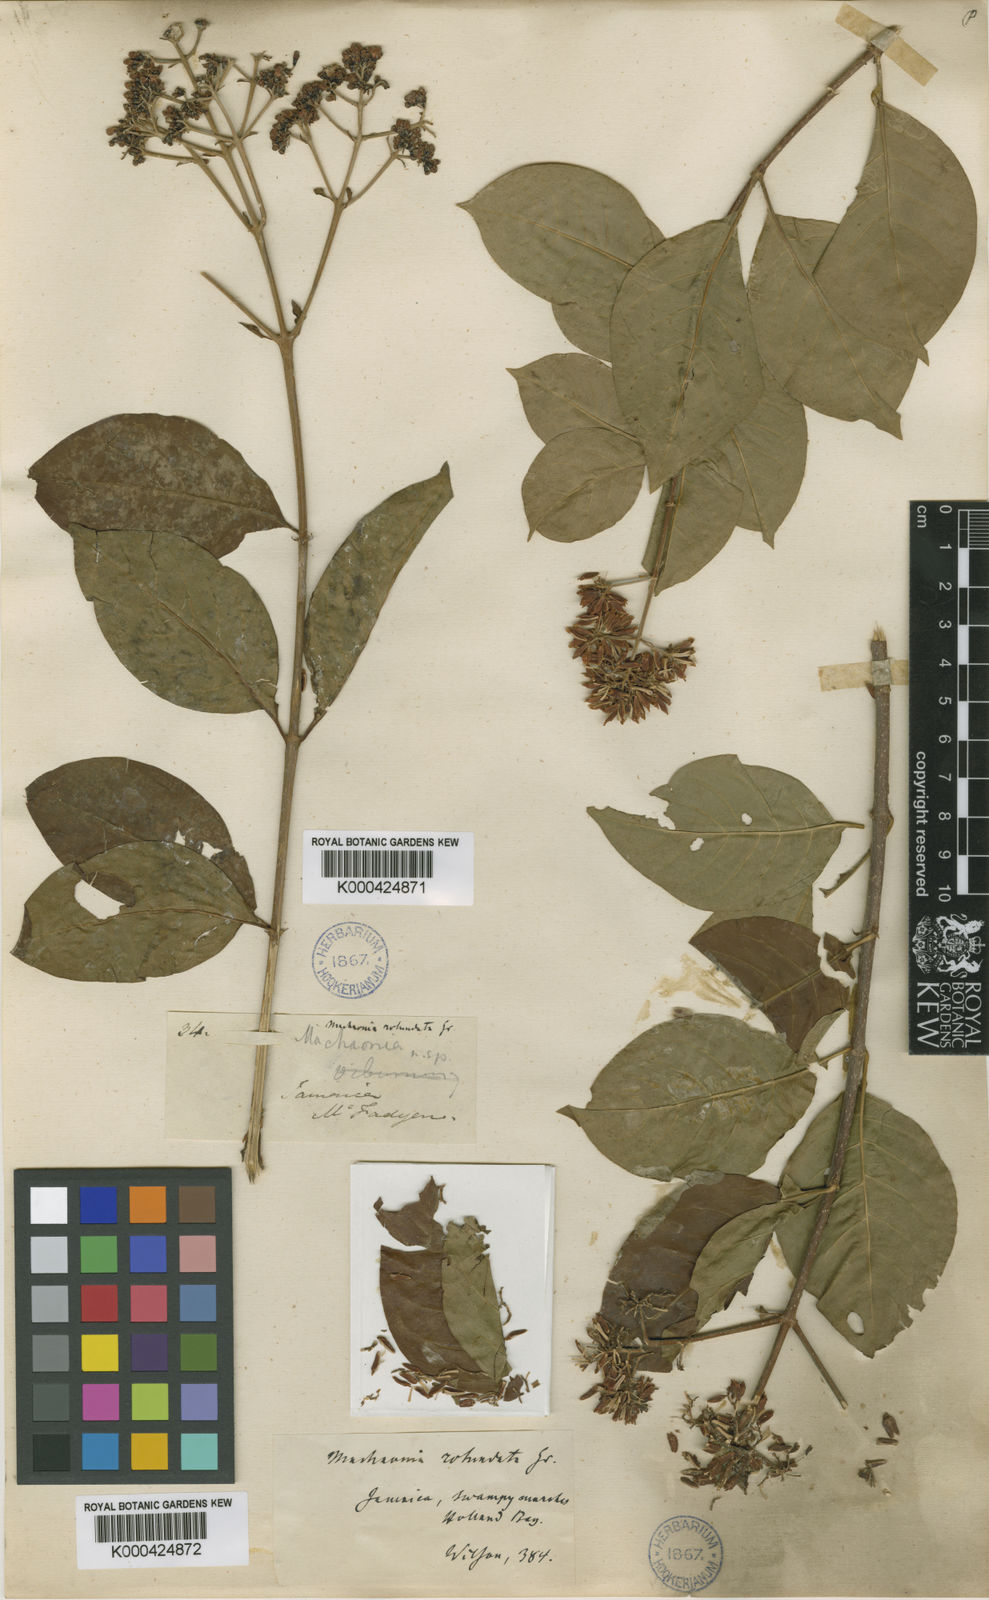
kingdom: Plantae
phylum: Tracheophyta
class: Magnoliopsida
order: Gentianales
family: Rubiaceae
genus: Machaonia
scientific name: Machaonia martinicensis
